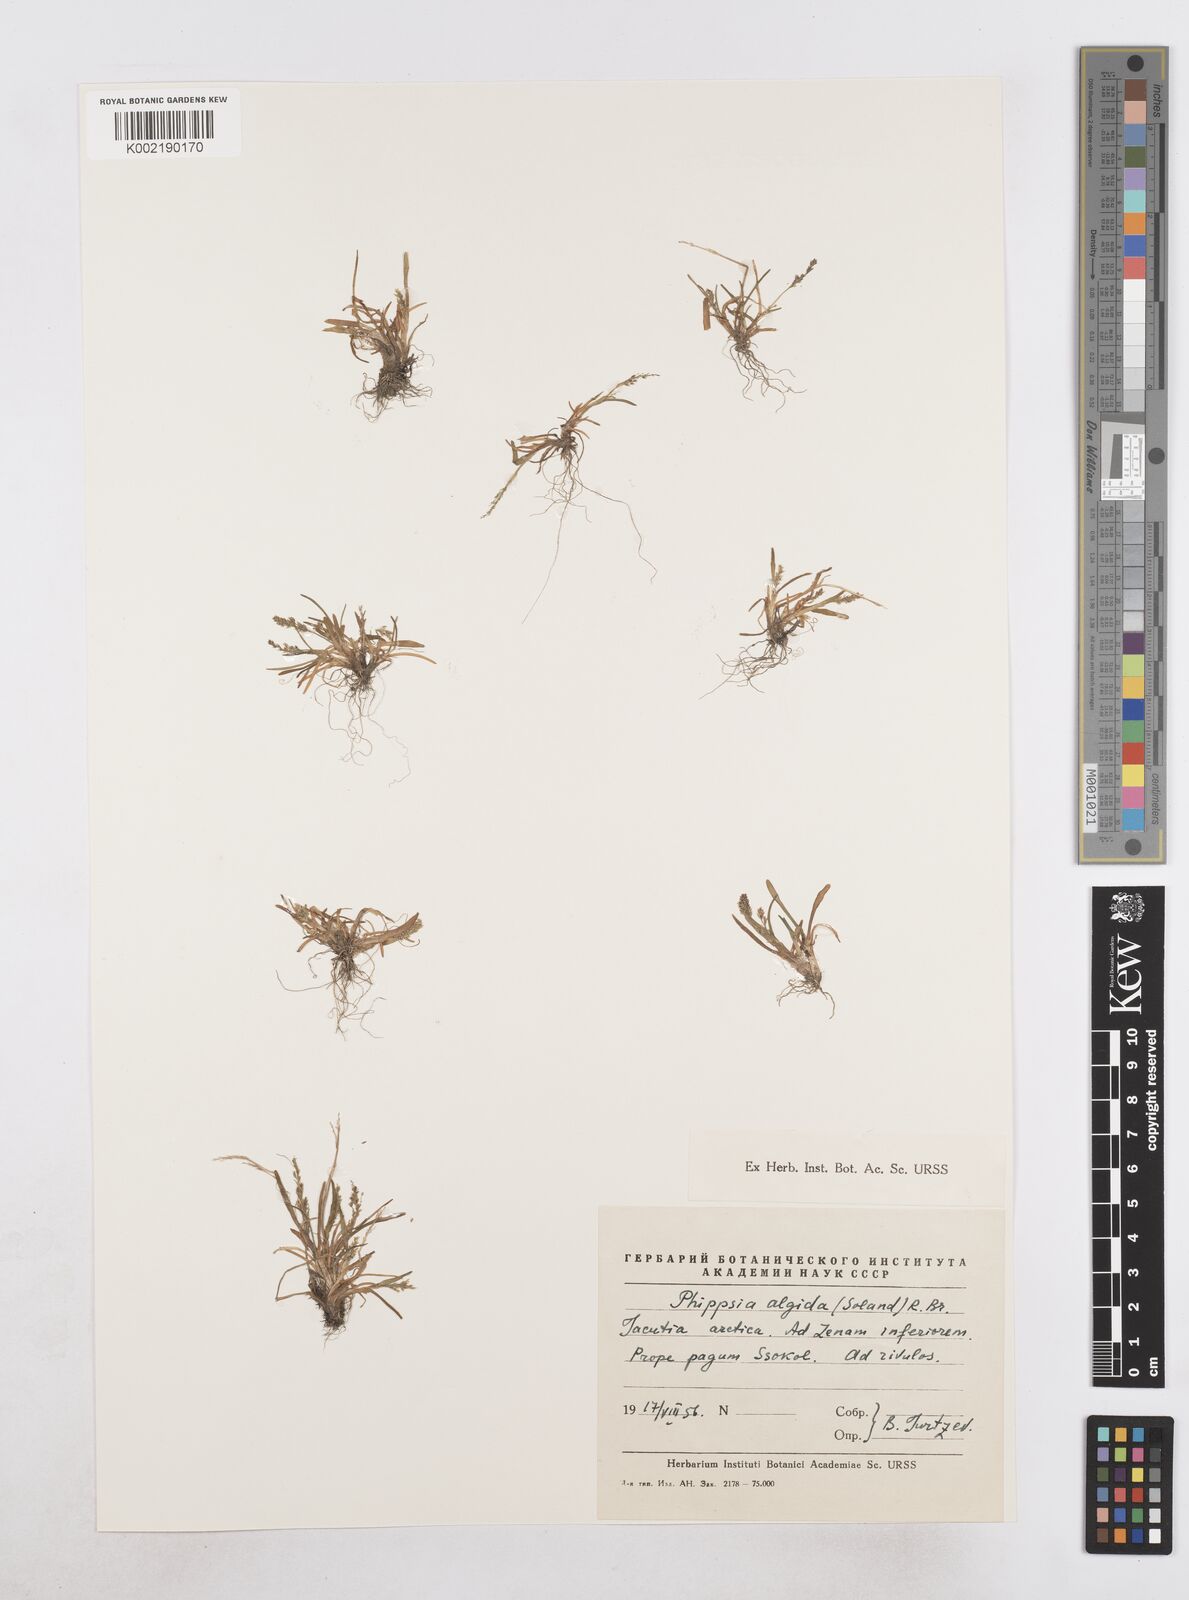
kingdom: Plantae
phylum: Tracheophyta
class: Liliopsida
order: Poales
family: Poaceae
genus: Phippsia
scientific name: Phippsia concinna
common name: Snowgrass
